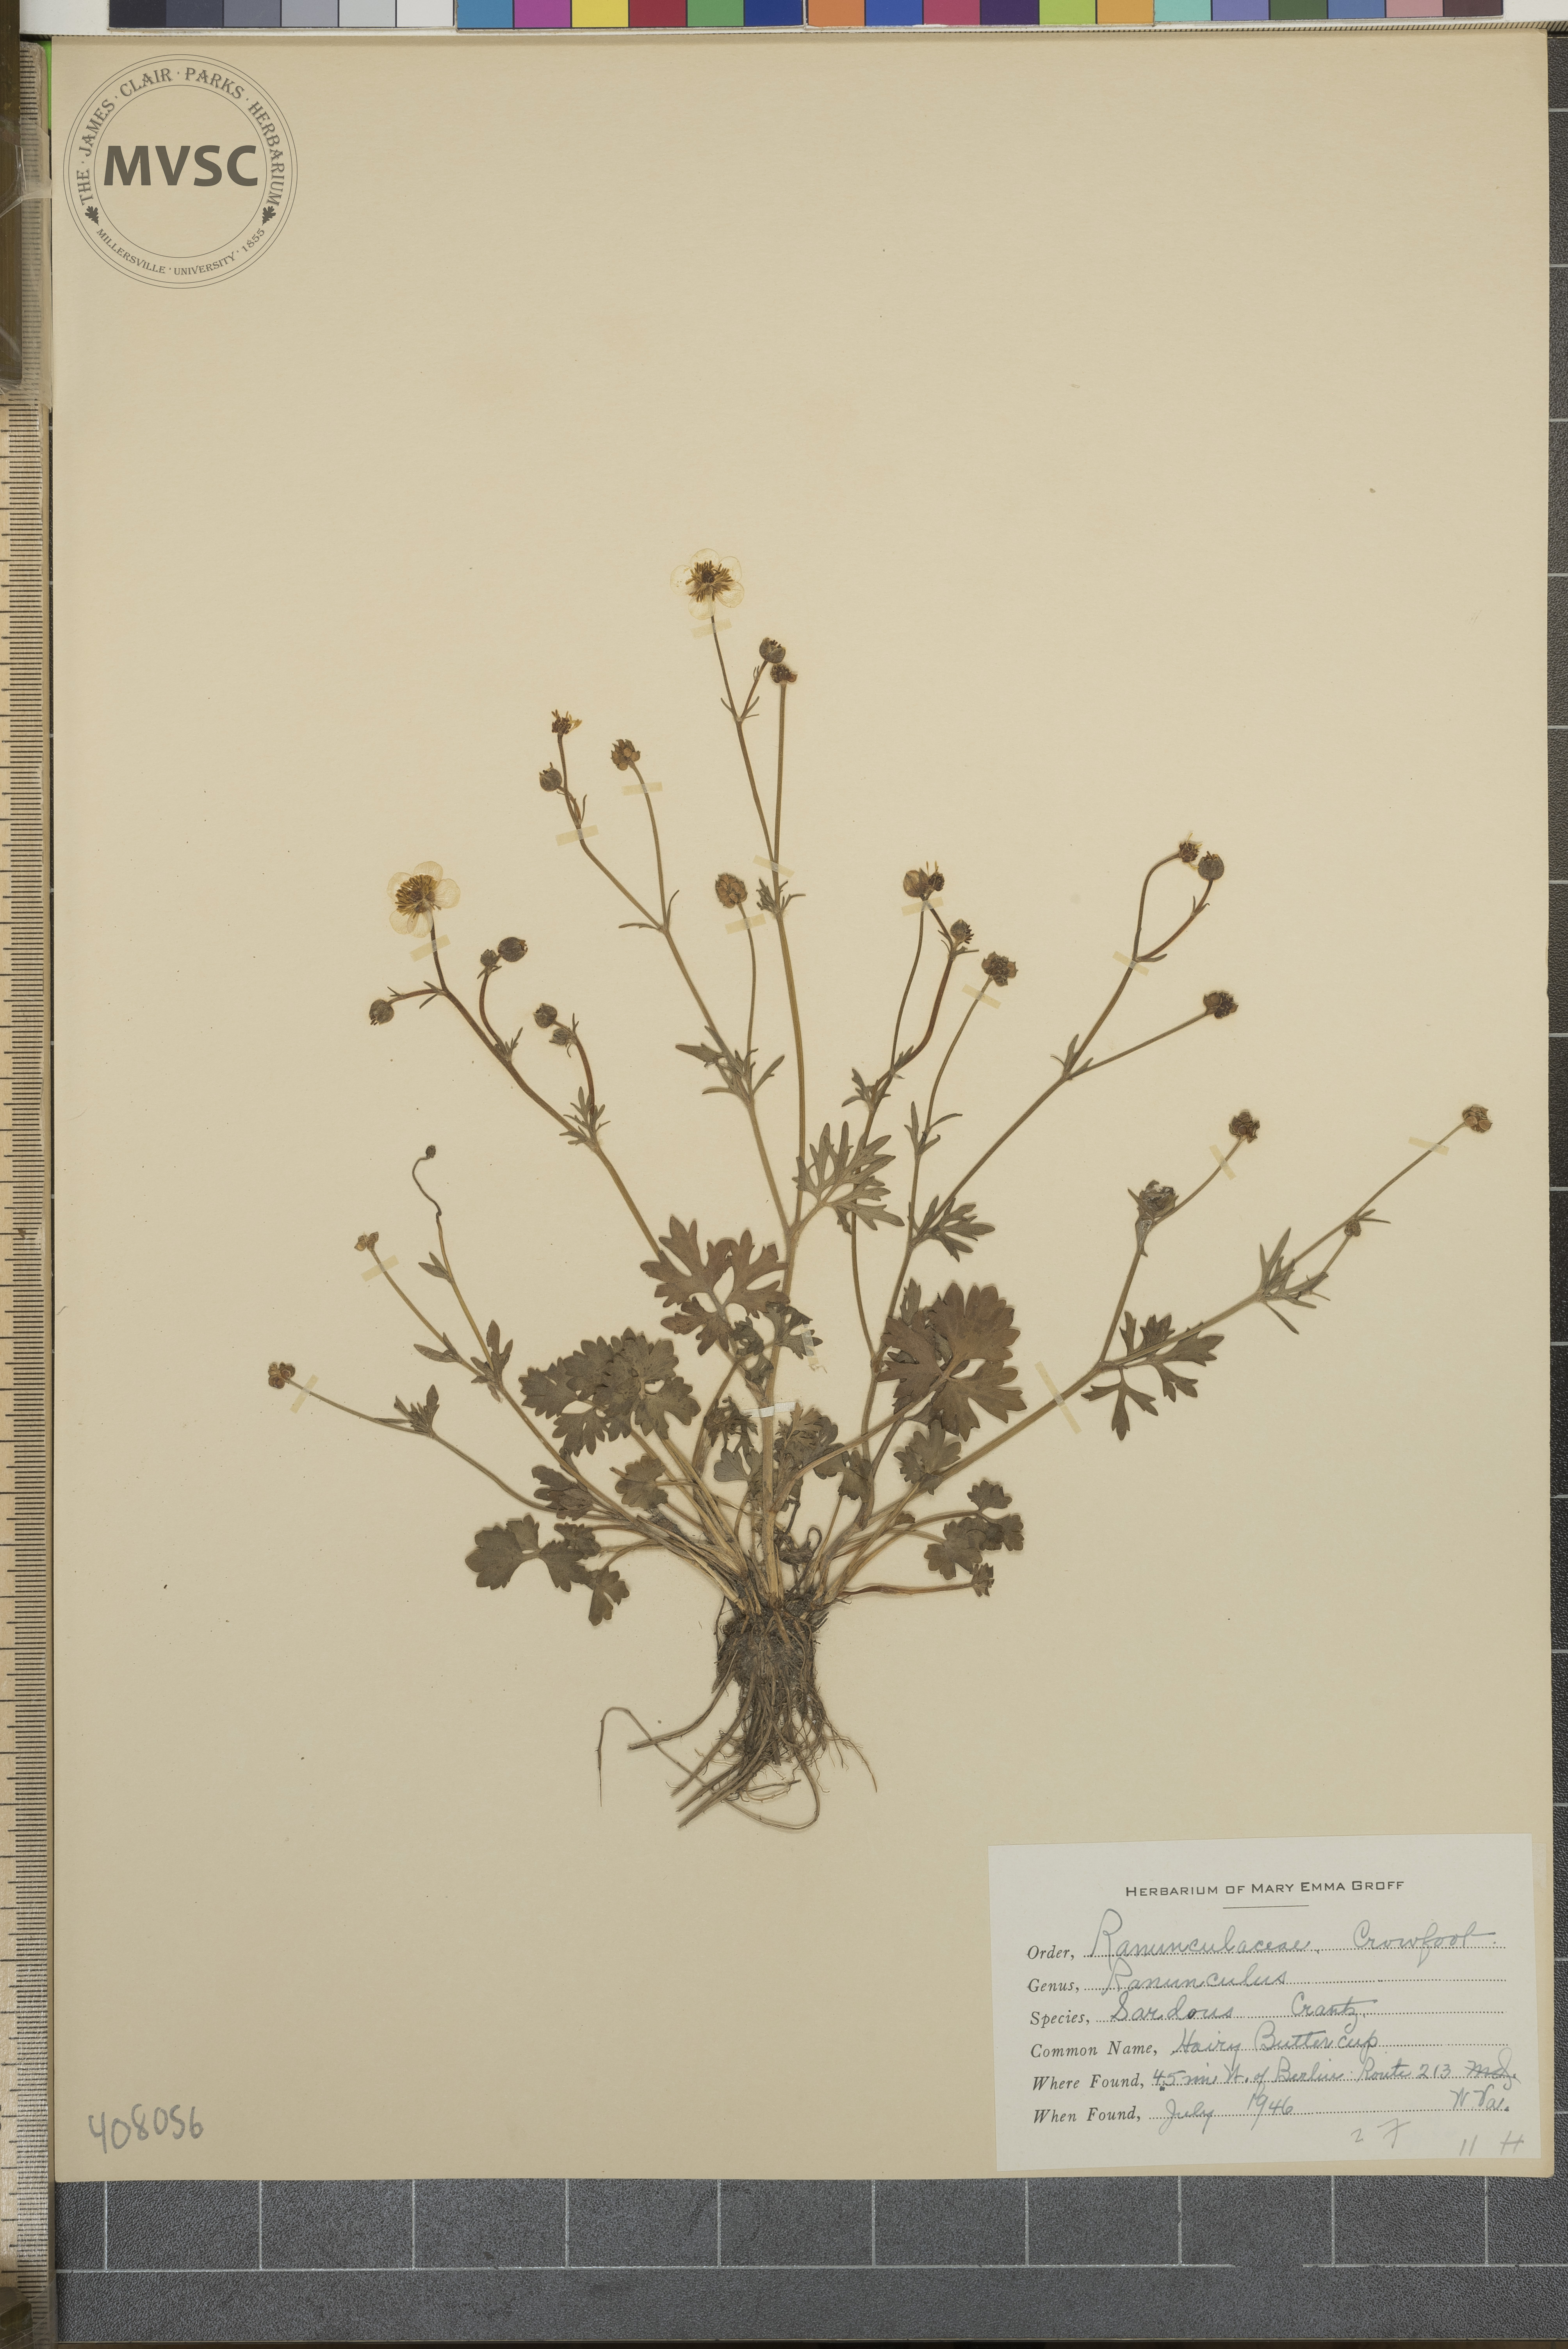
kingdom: Plantae
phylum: Tracheophyta
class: Magnoliopsida
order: Ranunculales
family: Ranunculaceae
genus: Ranunculus
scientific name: Ranunculus sardous
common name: Hairy Buttercup
